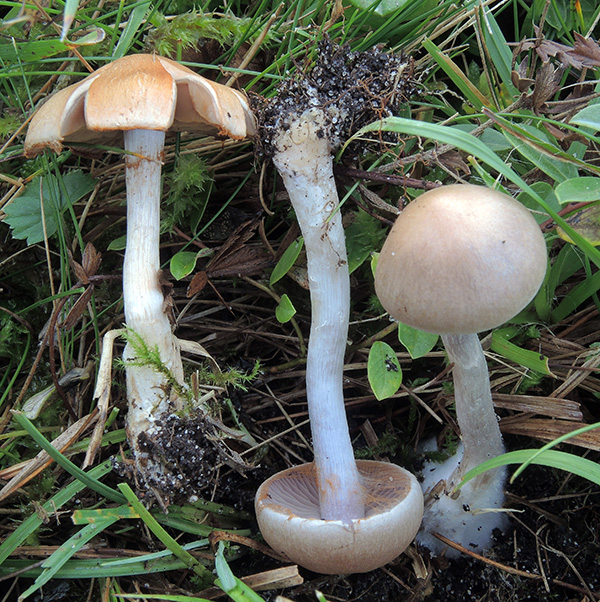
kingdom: Fungi
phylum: Basidiomycota
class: Agaricomycetes
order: Agaricales
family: Cortinariaceae
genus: Cortinarius
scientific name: Cortinarius albocyaneus
